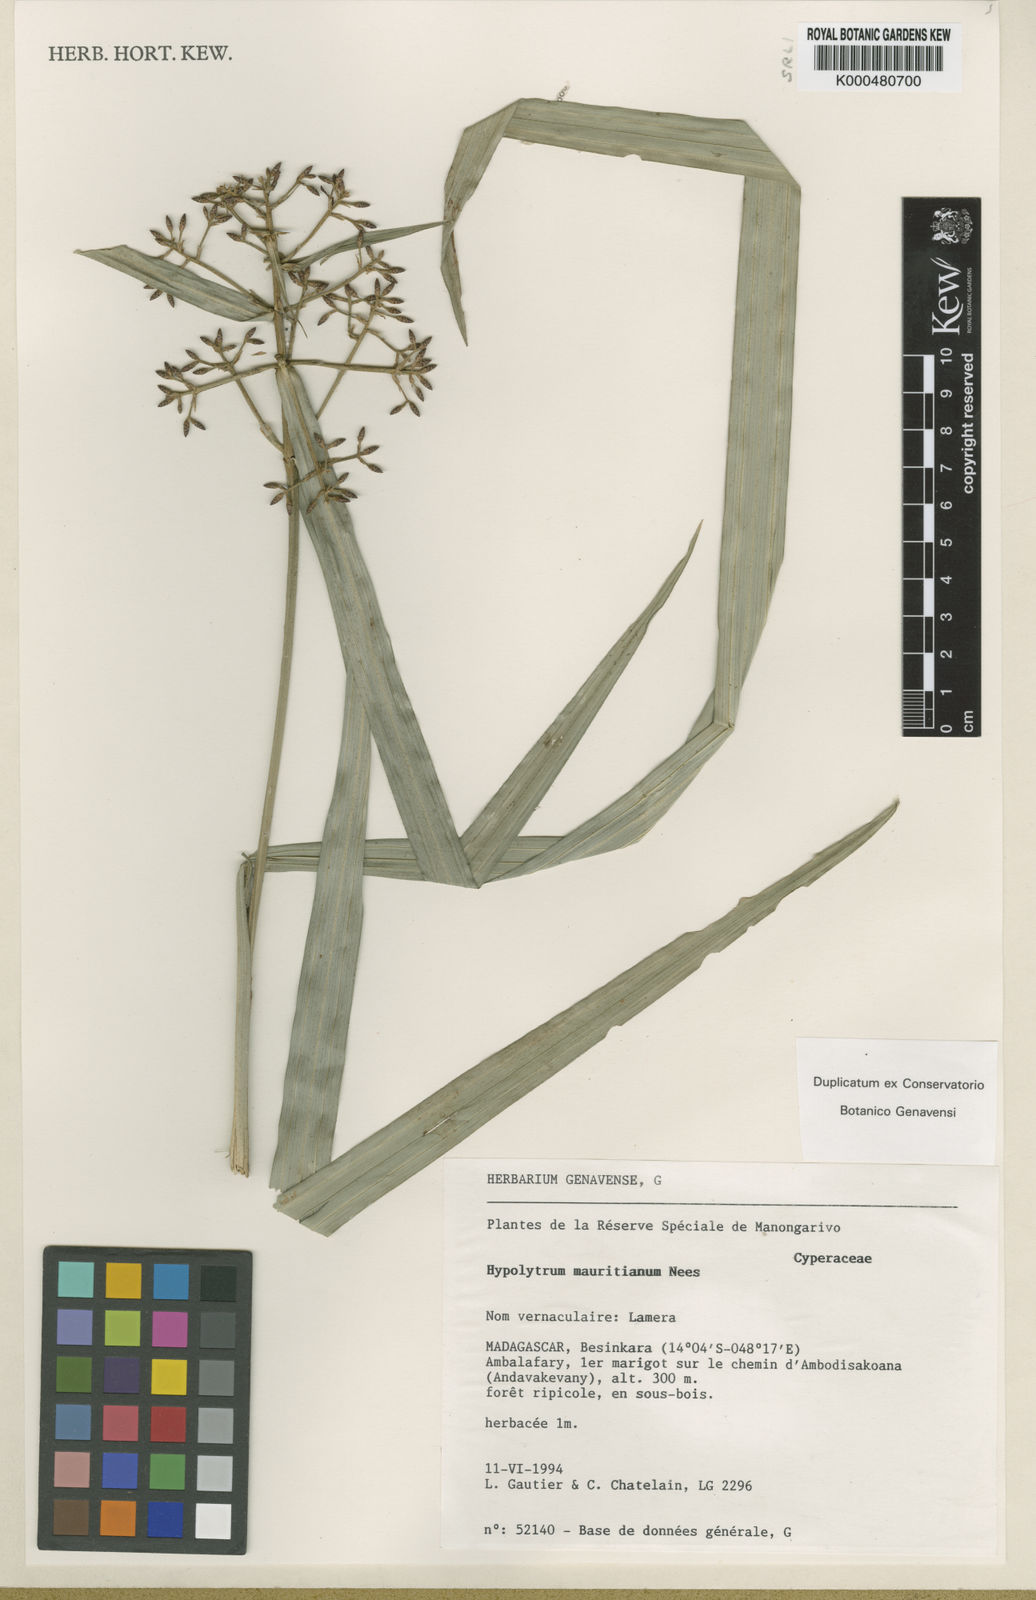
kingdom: Plantae
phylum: Tracheophyta
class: Liliopsida
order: Poales
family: Cyperaceae
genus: Hypolytrum
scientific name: Hypolytrum mauritianum
